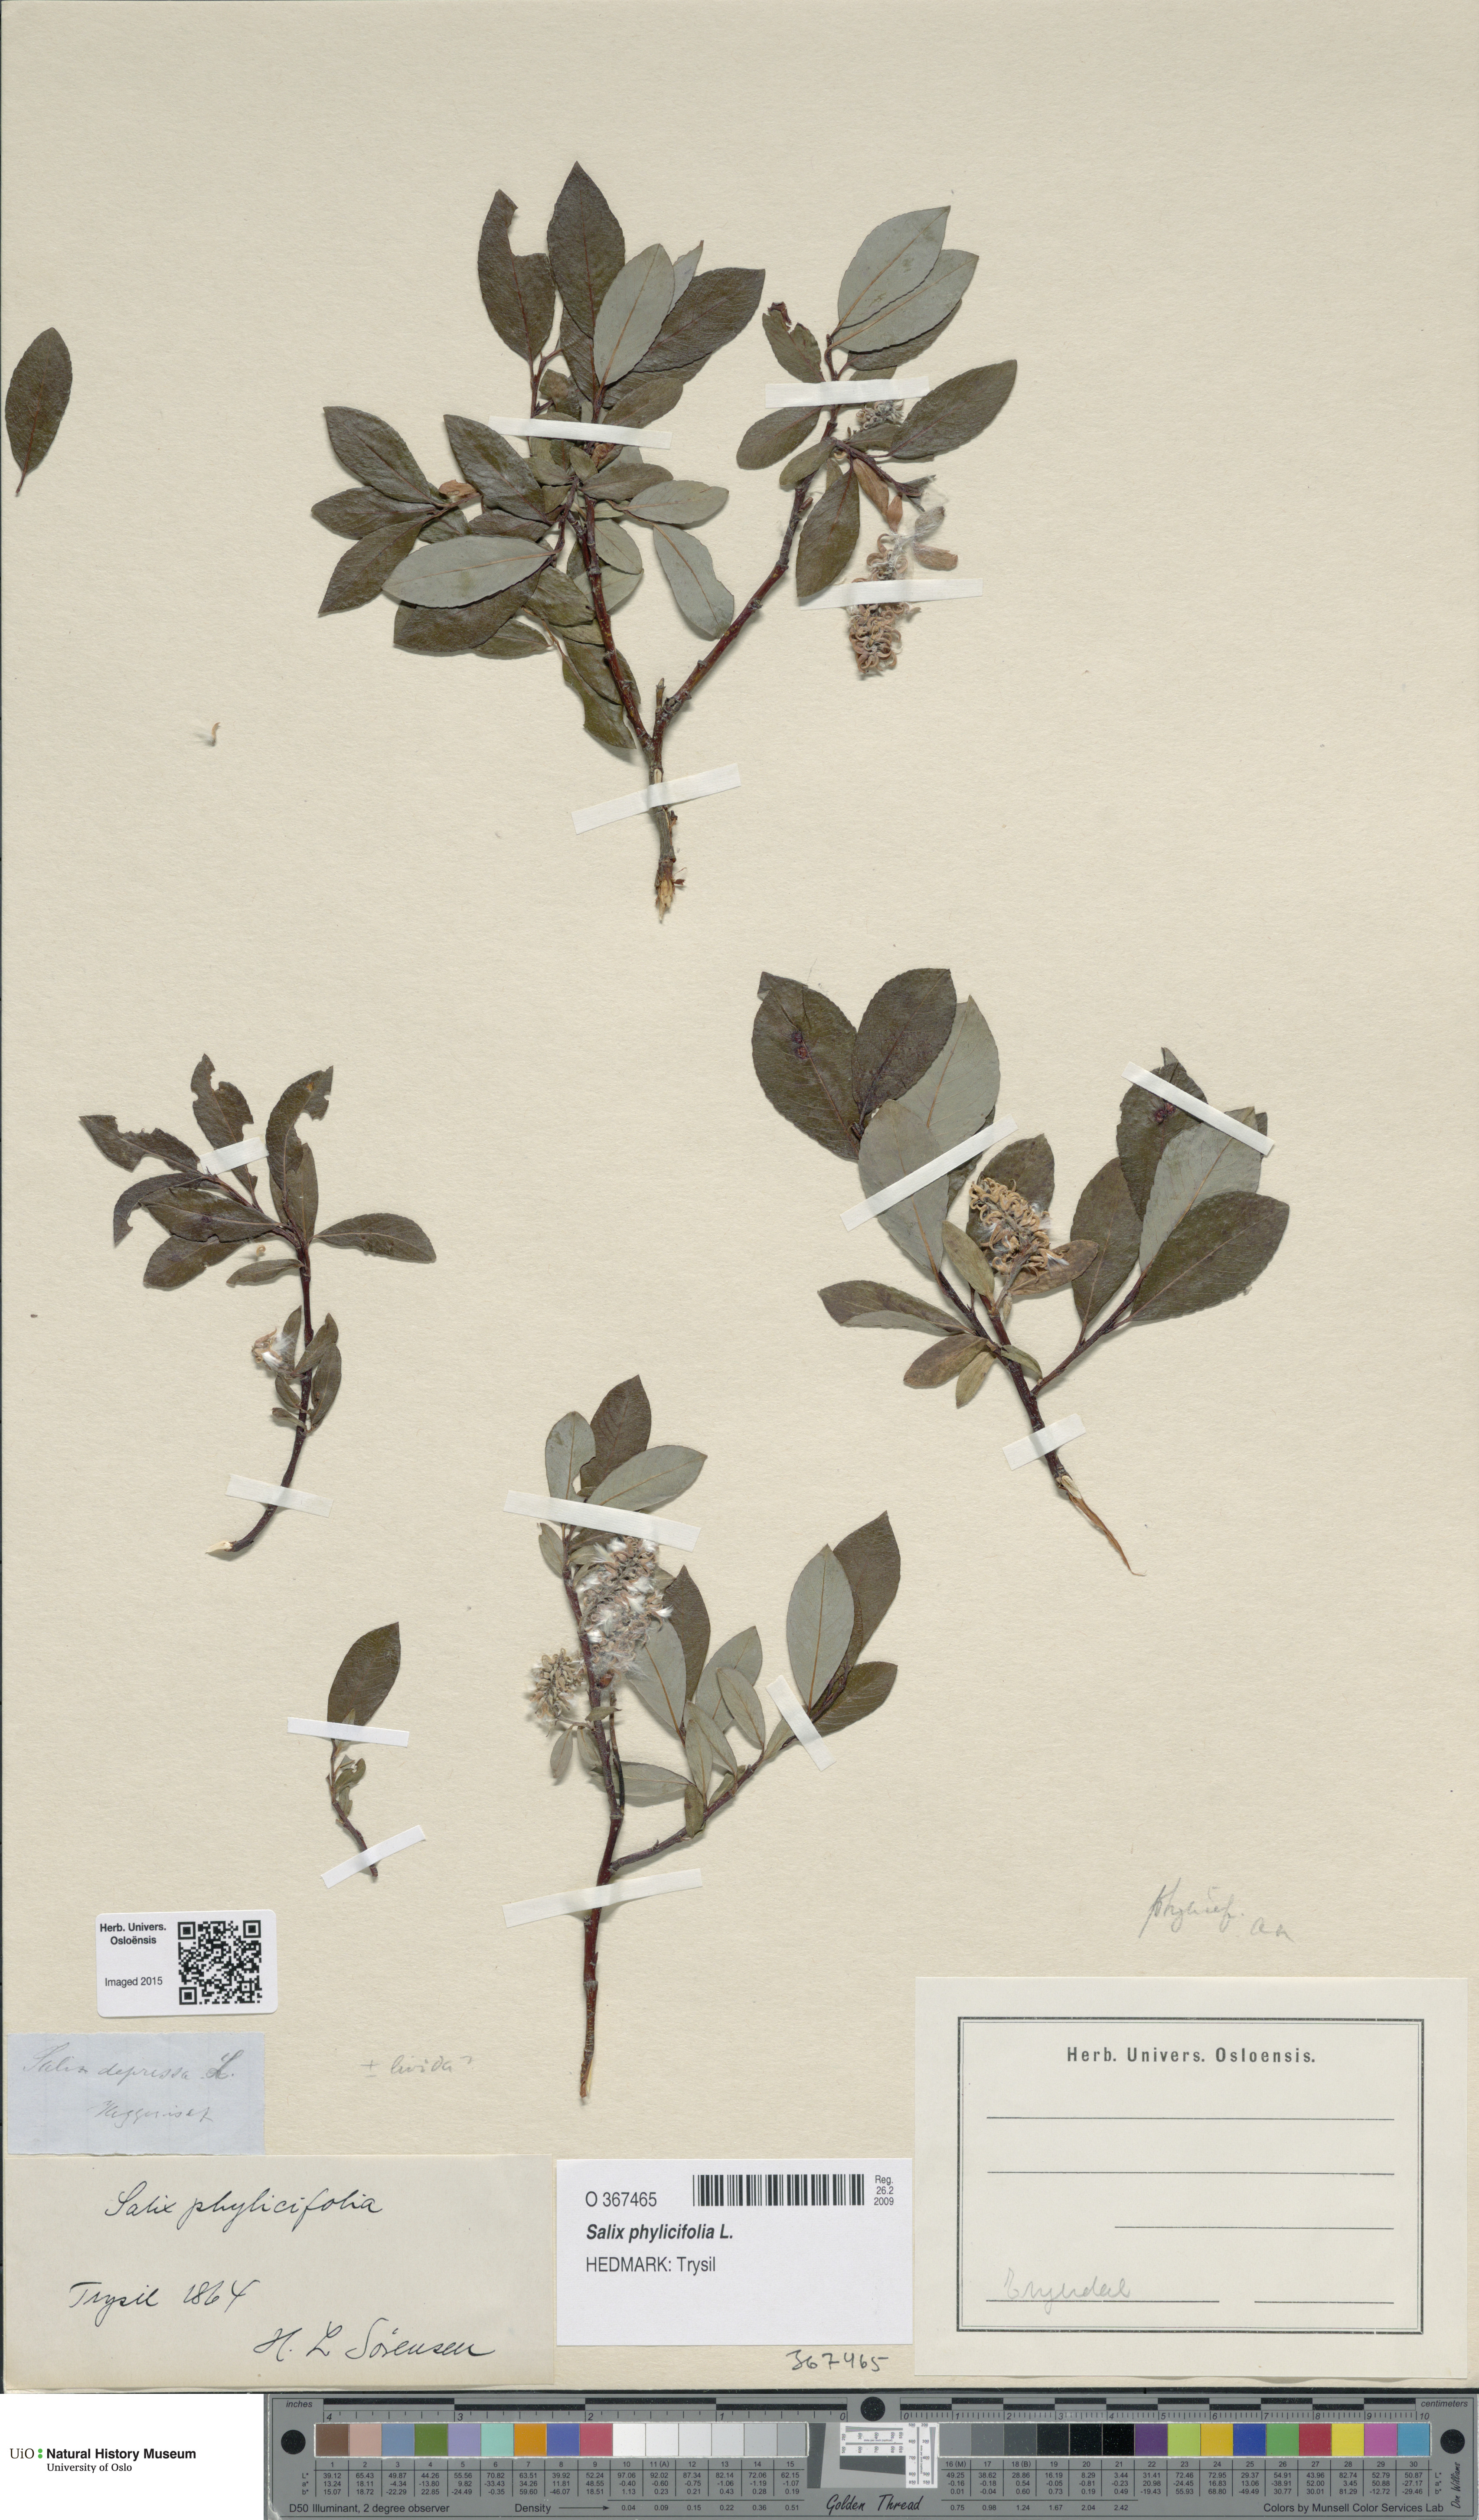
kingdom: Plantae
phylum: Tracheophyta
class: Magnoliopsida
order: Malpighiales
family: Salicaceae
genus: Salix
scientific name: Salix phylicifolia
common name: Tea-leaved willow
